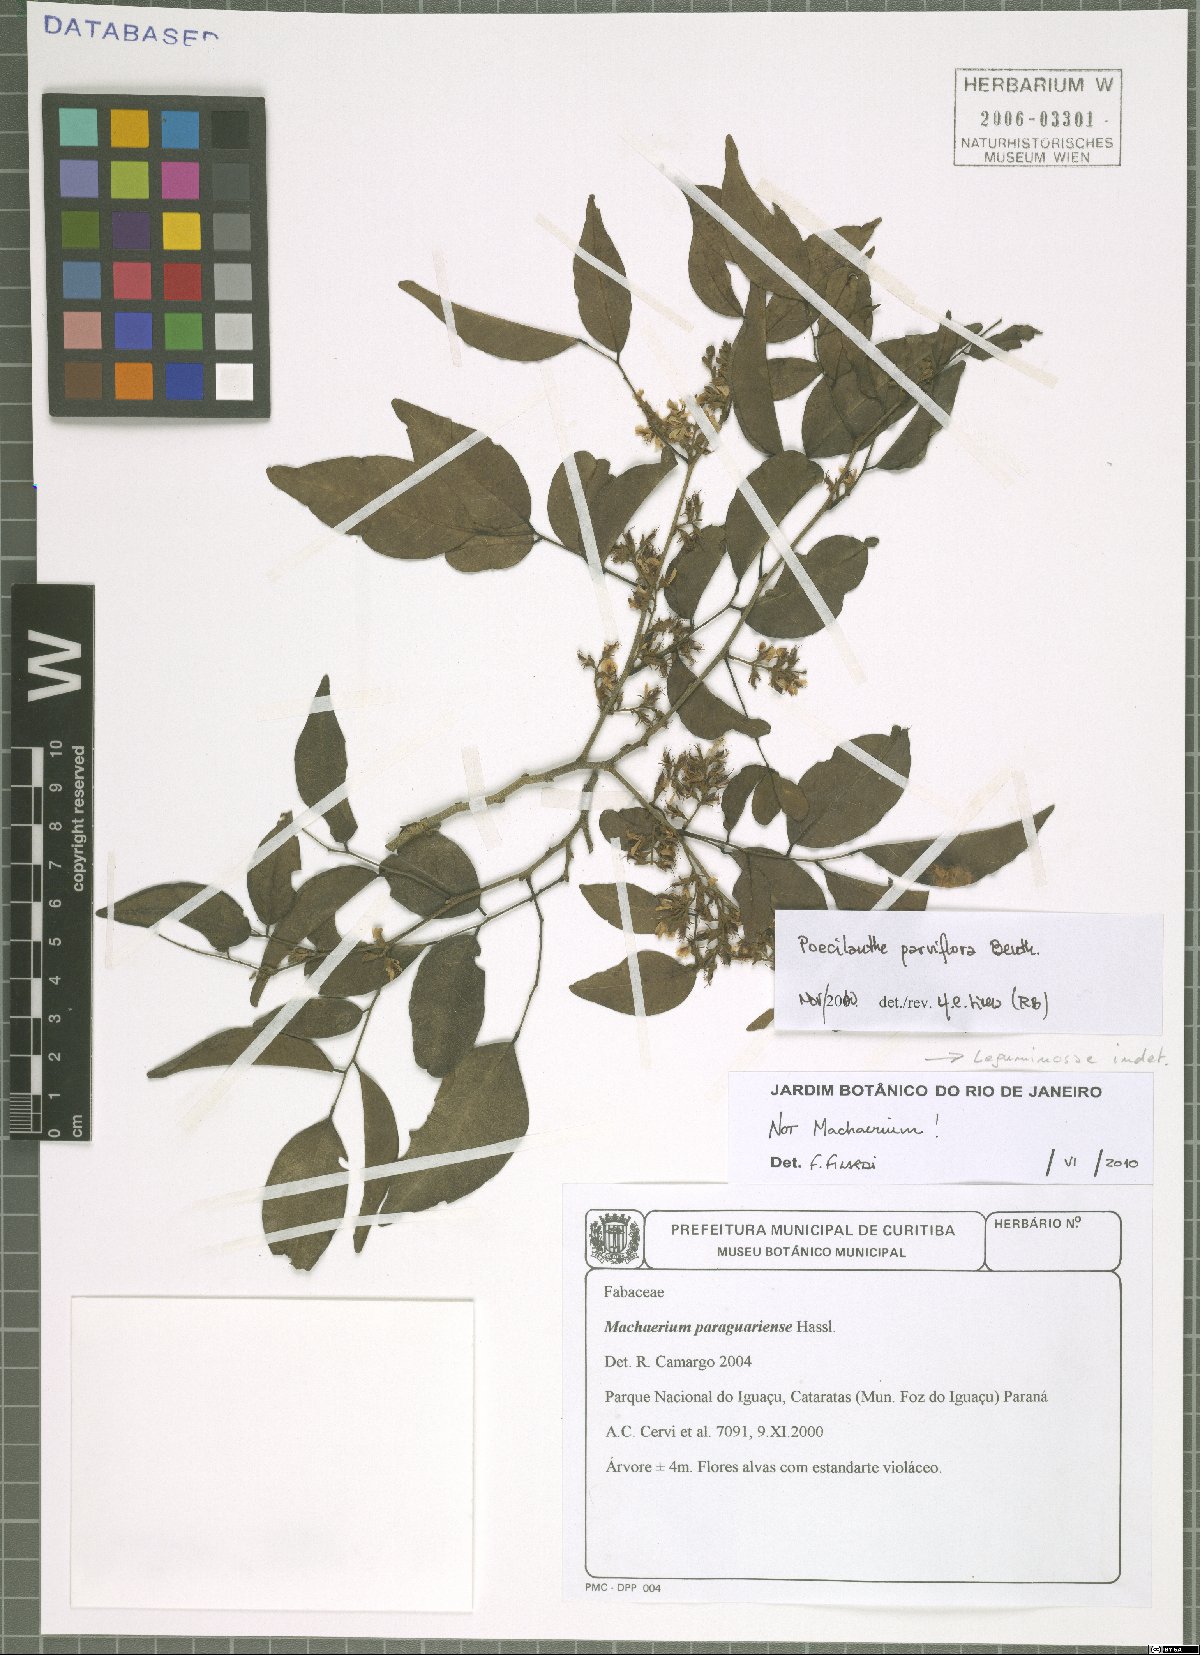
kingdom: Plantae
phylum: Tracheophyta
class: Magnoliopsida
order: Fabales
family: Fabaceae
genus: Poecilanthe
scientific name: Poecilanthe parviflora
